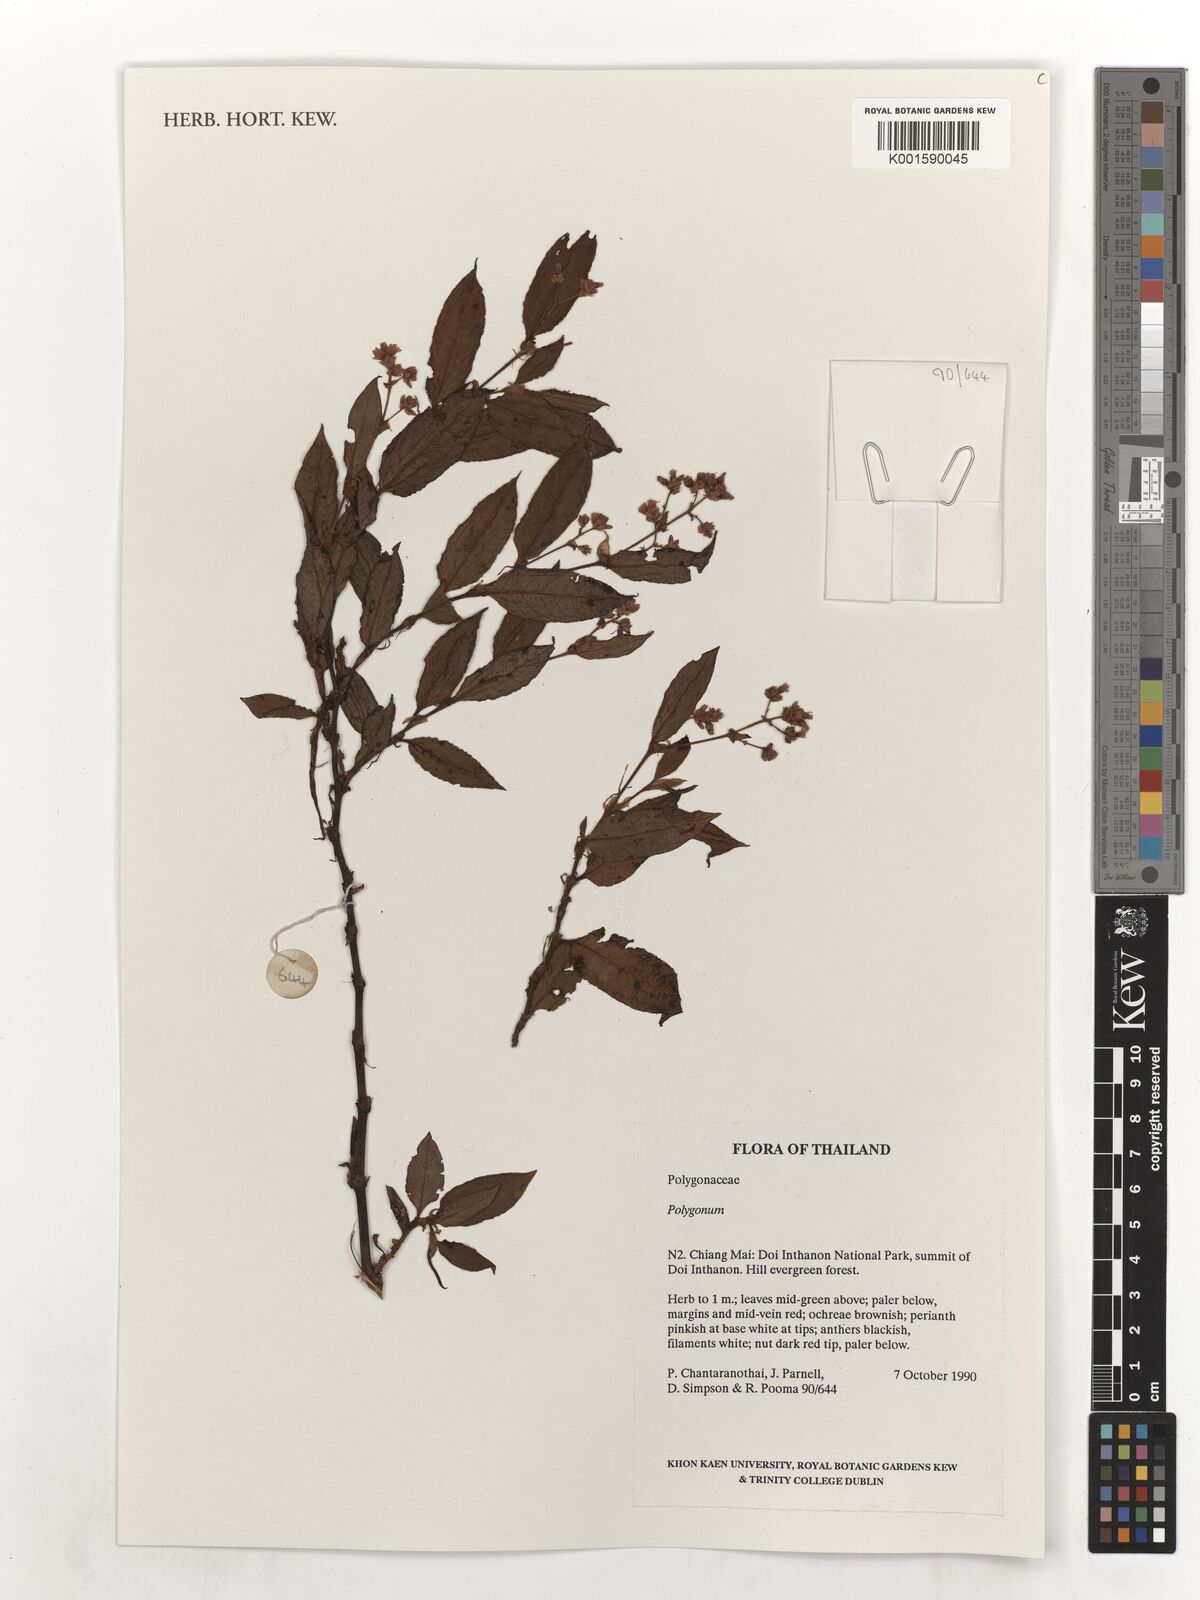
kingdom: Plantae
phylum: Tracheophyta
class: Magnoliopsida
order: Caryophyllales
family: Polygonaceae
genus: Polygonum
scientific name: Polygonum
